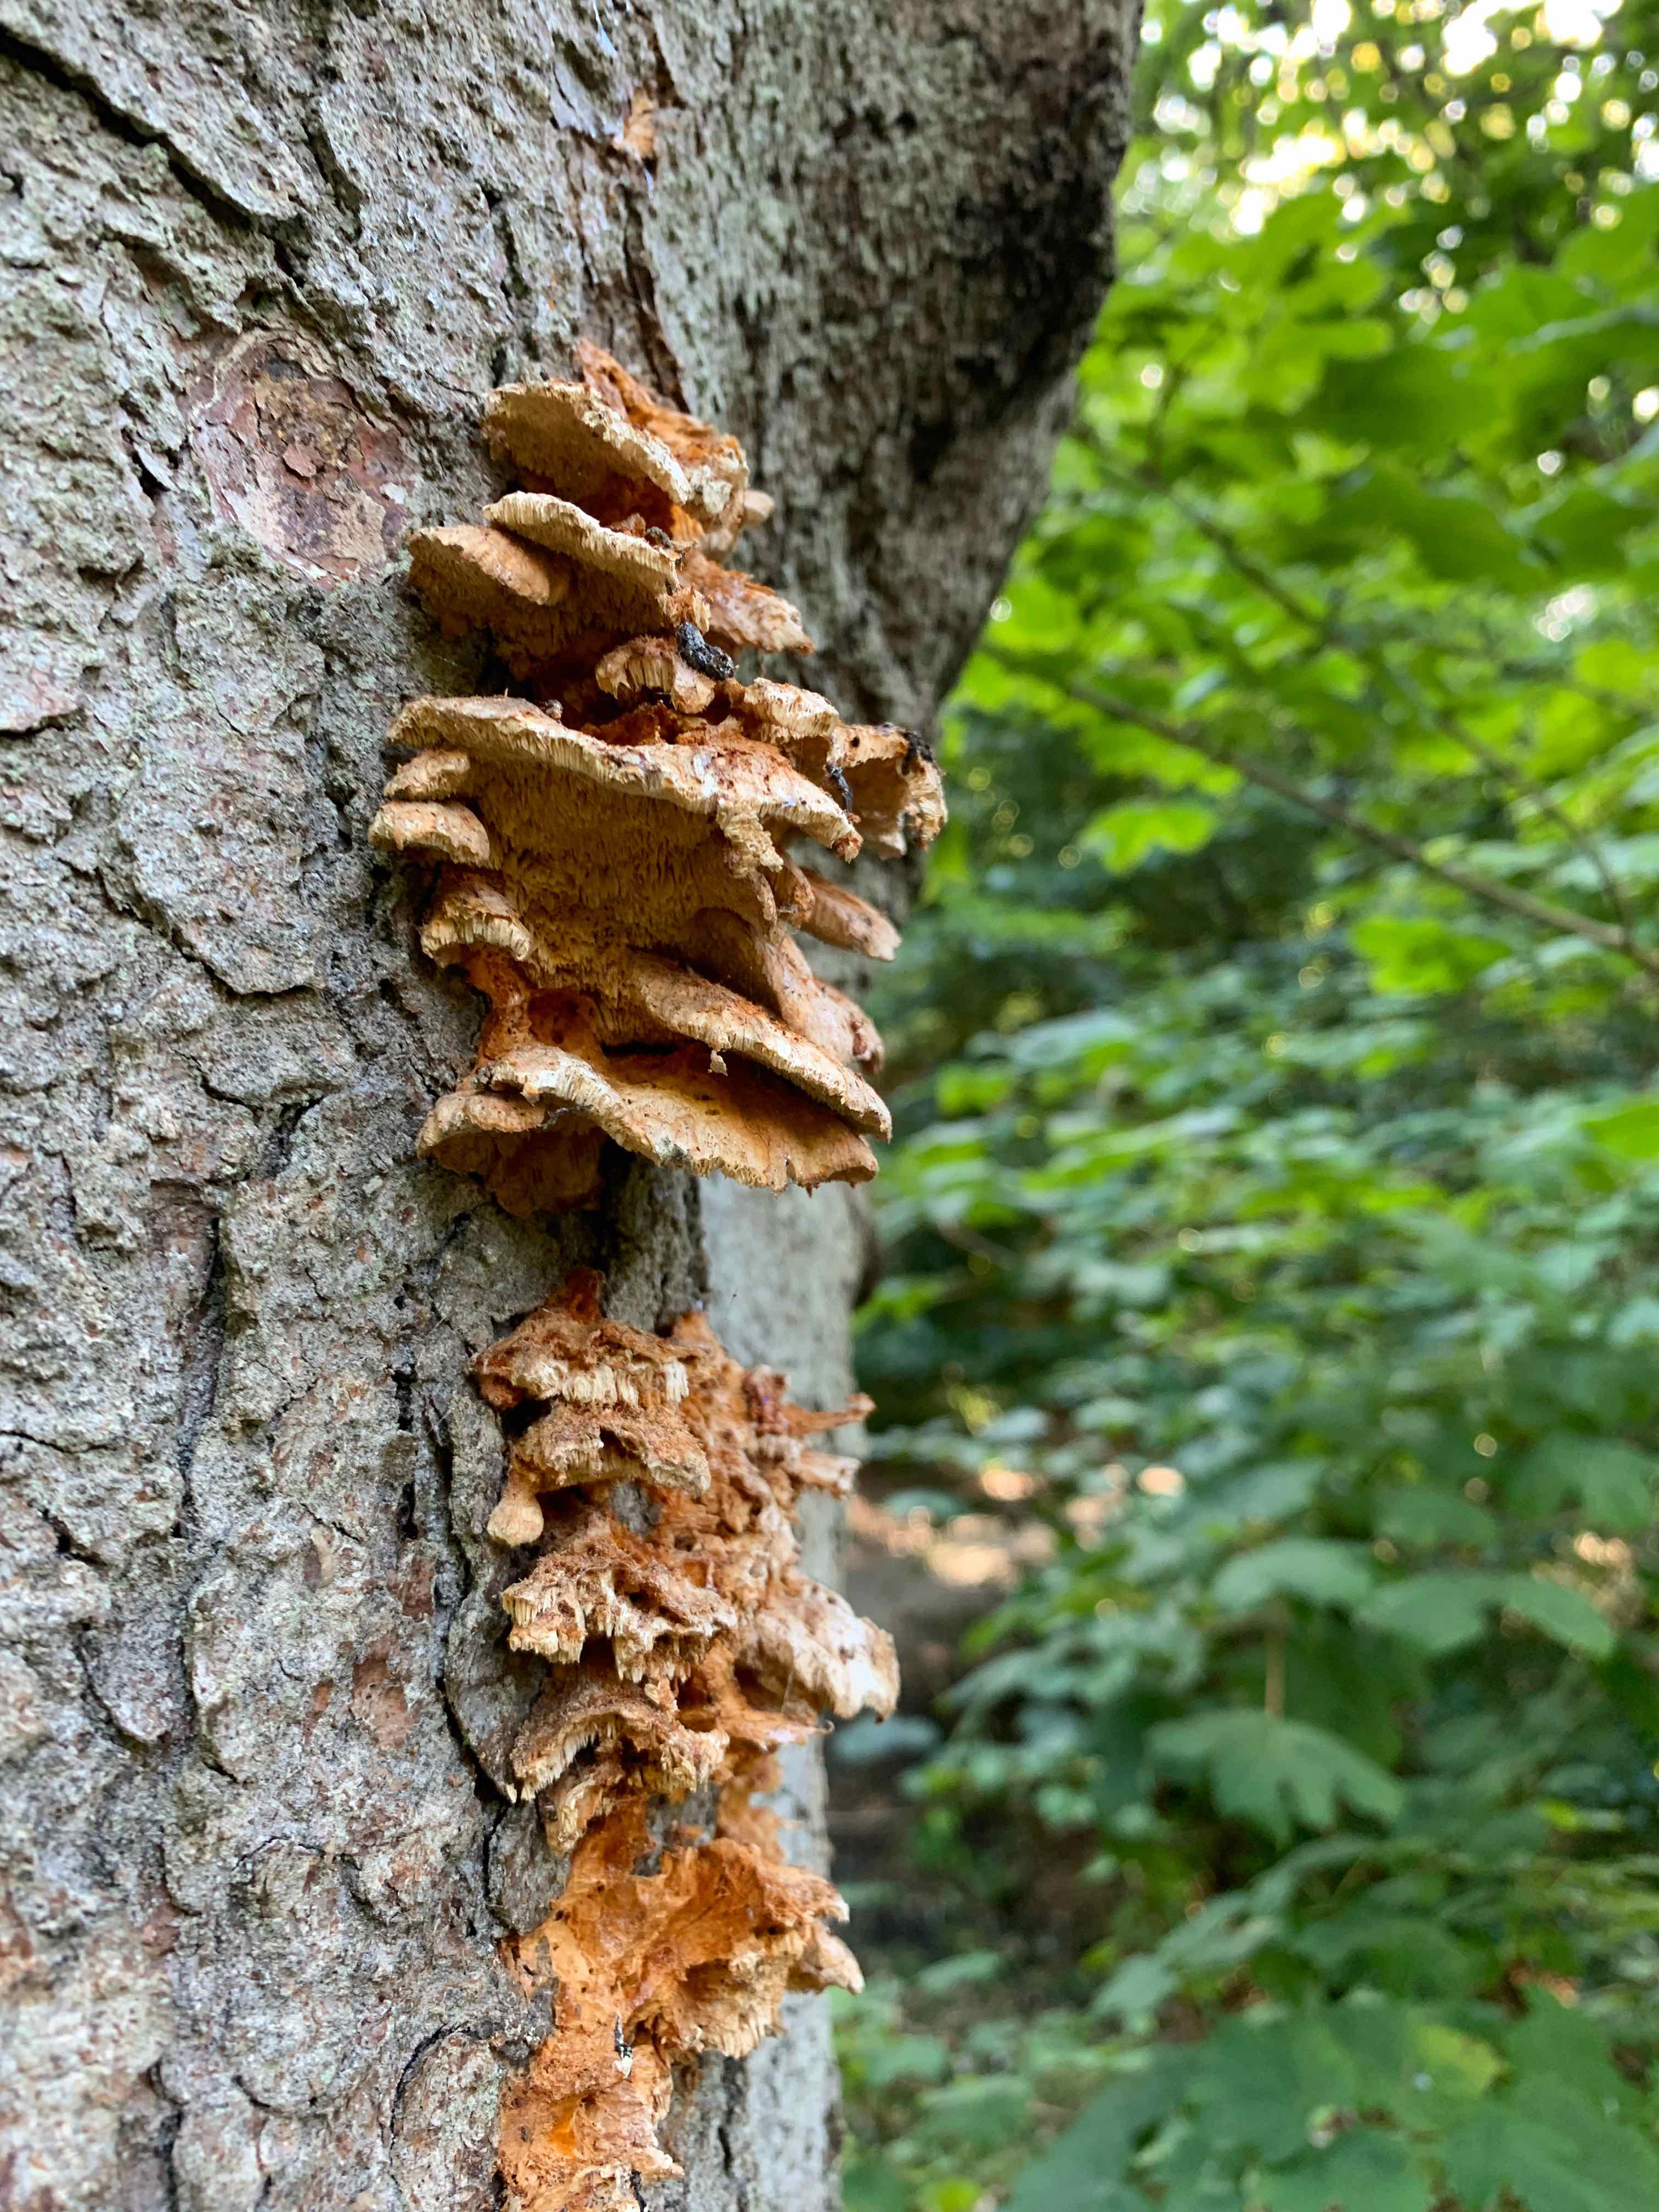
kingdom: Fungi
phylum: Basidiomycota
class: Agaricomycetes
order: Polyporales
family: Pycnoporellaceae
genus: Pycnoporellus
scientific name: Pycnoporellus fulgens
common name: flammeporesvamp
